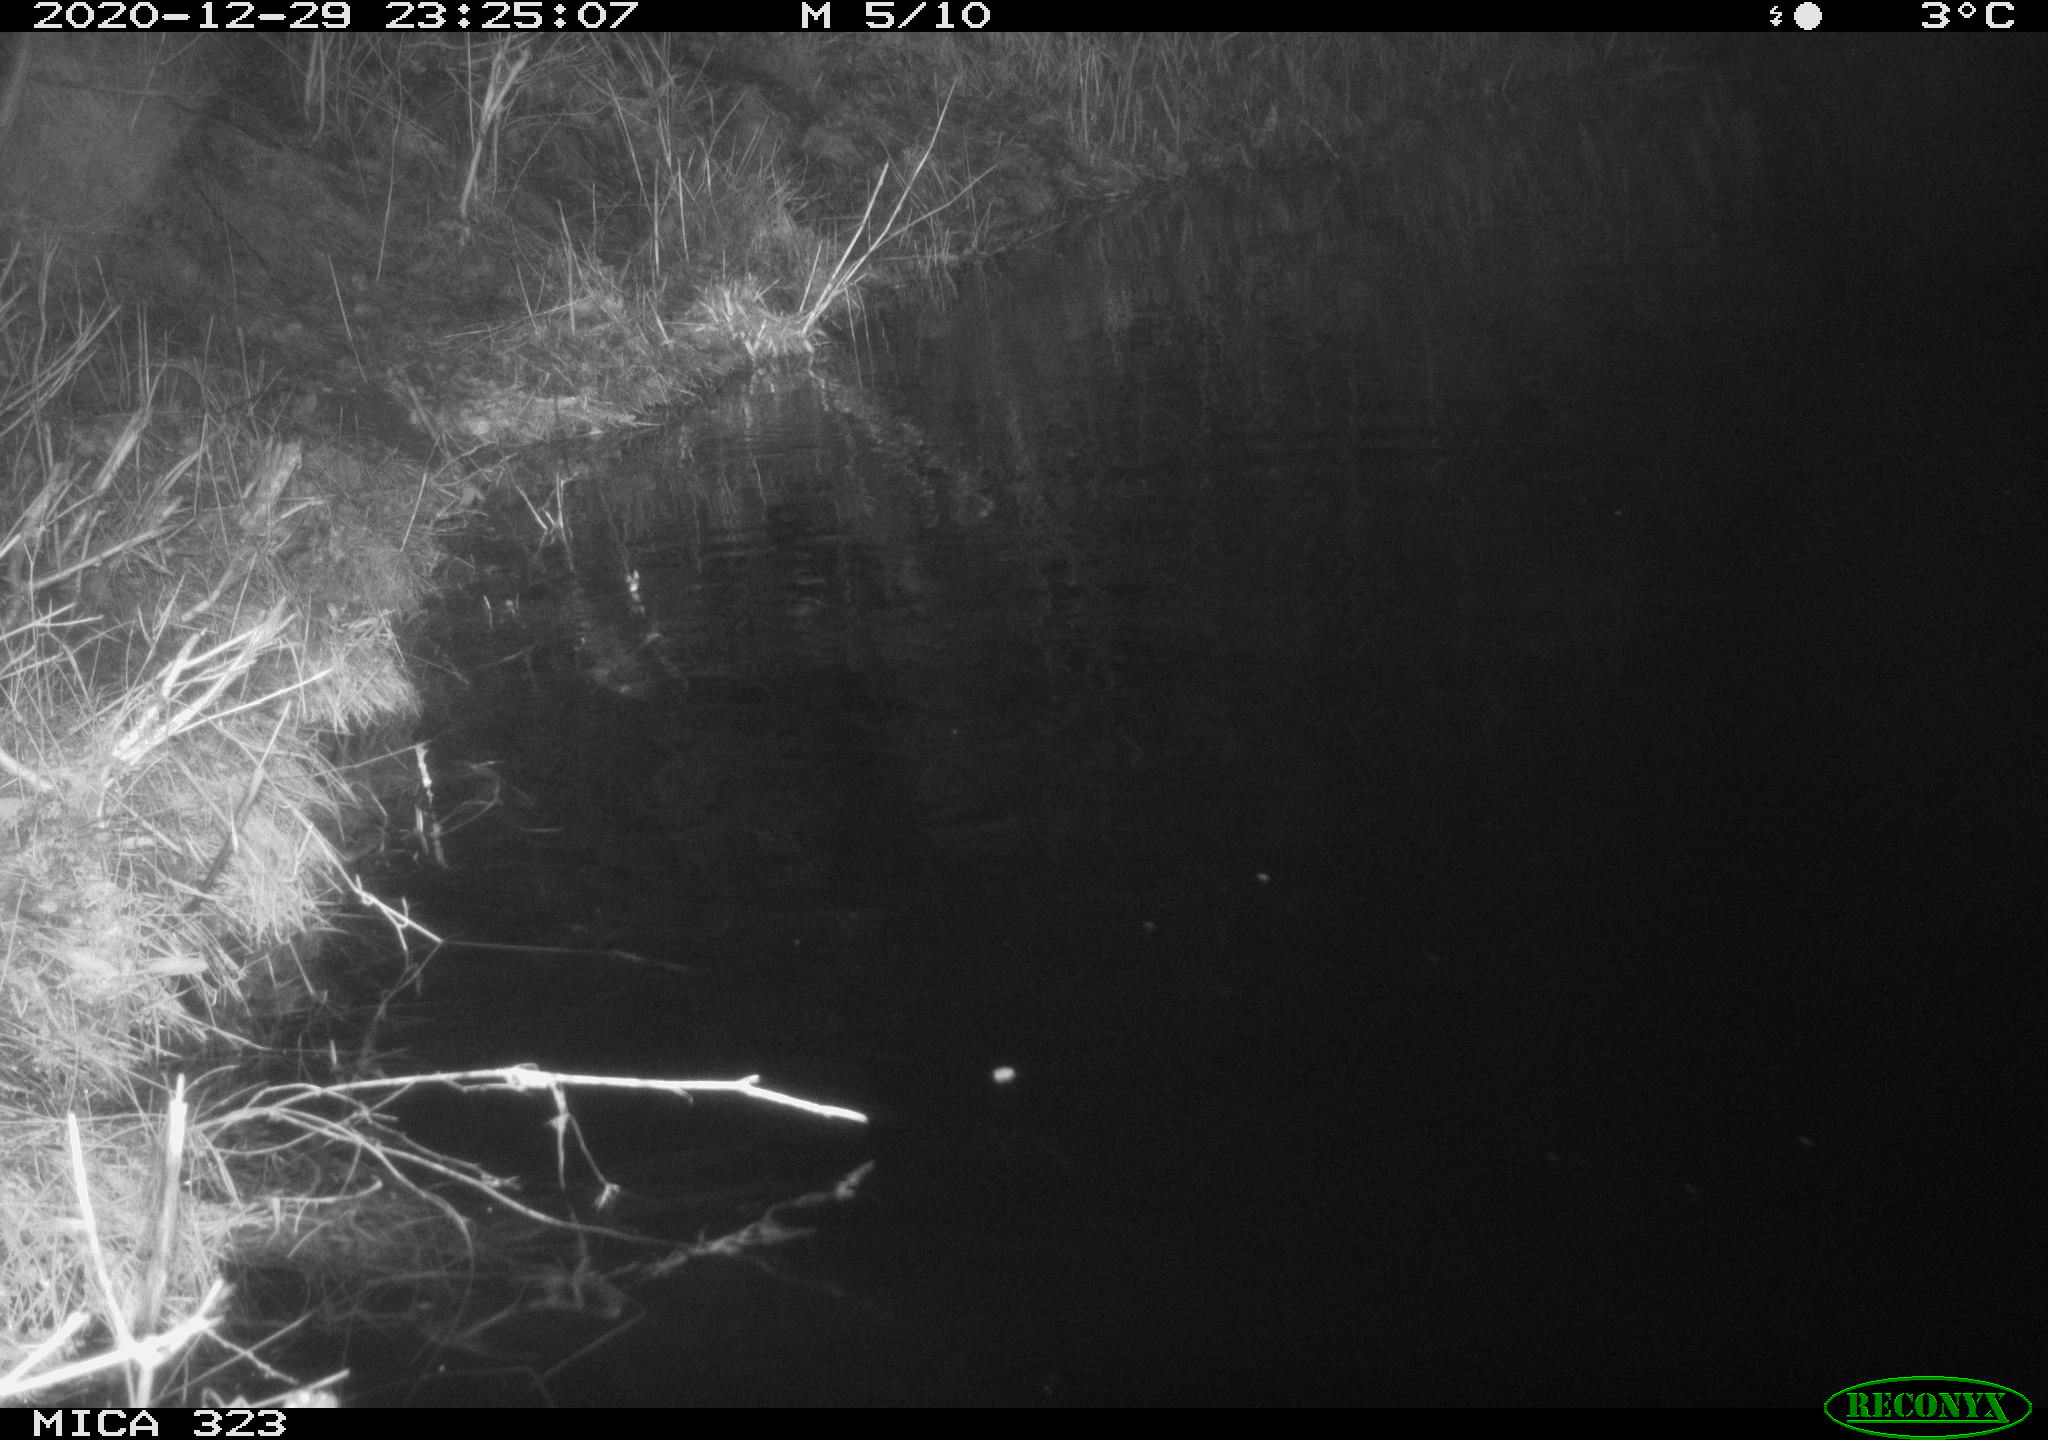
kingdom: Animalia
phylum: Chordata
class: Mammalia
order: Rodentia
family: Myocastoridae
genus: Myocastor
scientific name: Myocastor coypus
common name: Coypu
